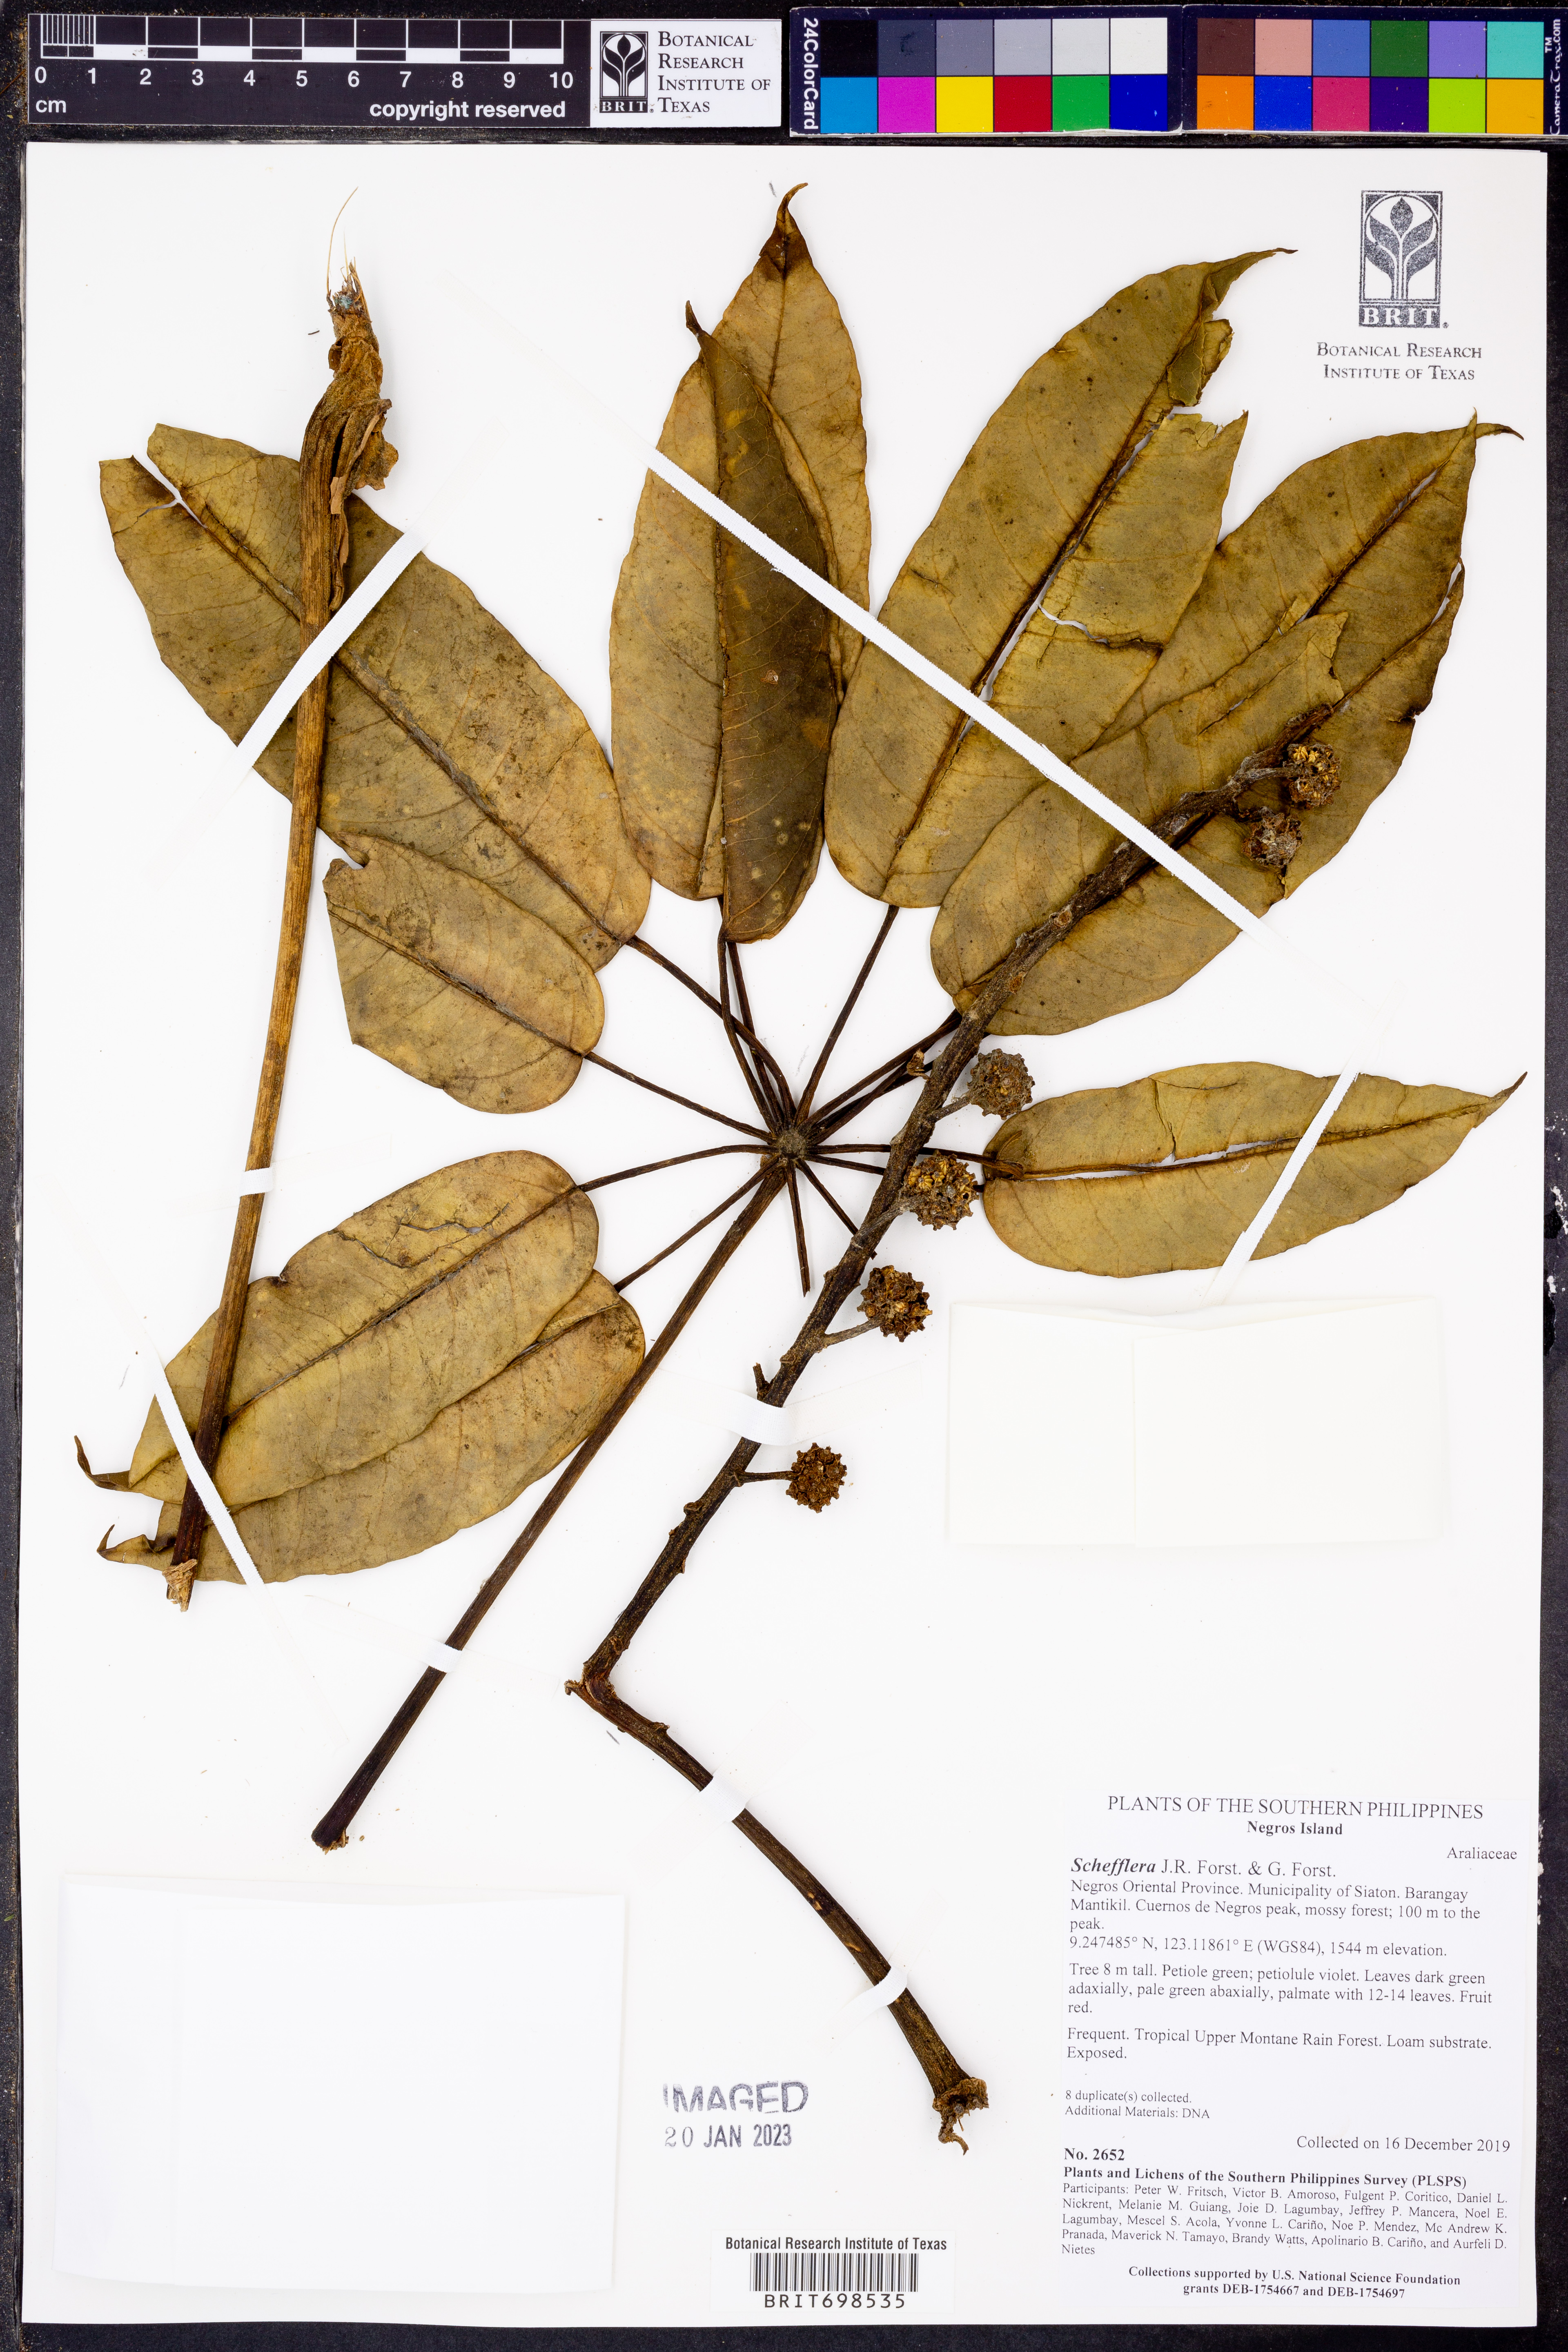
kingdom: Plantae
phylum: Tracheophyta
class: Magnoliopsida
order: Apiales
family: Araliaceae
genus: Schefflera
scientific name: Schefflera
